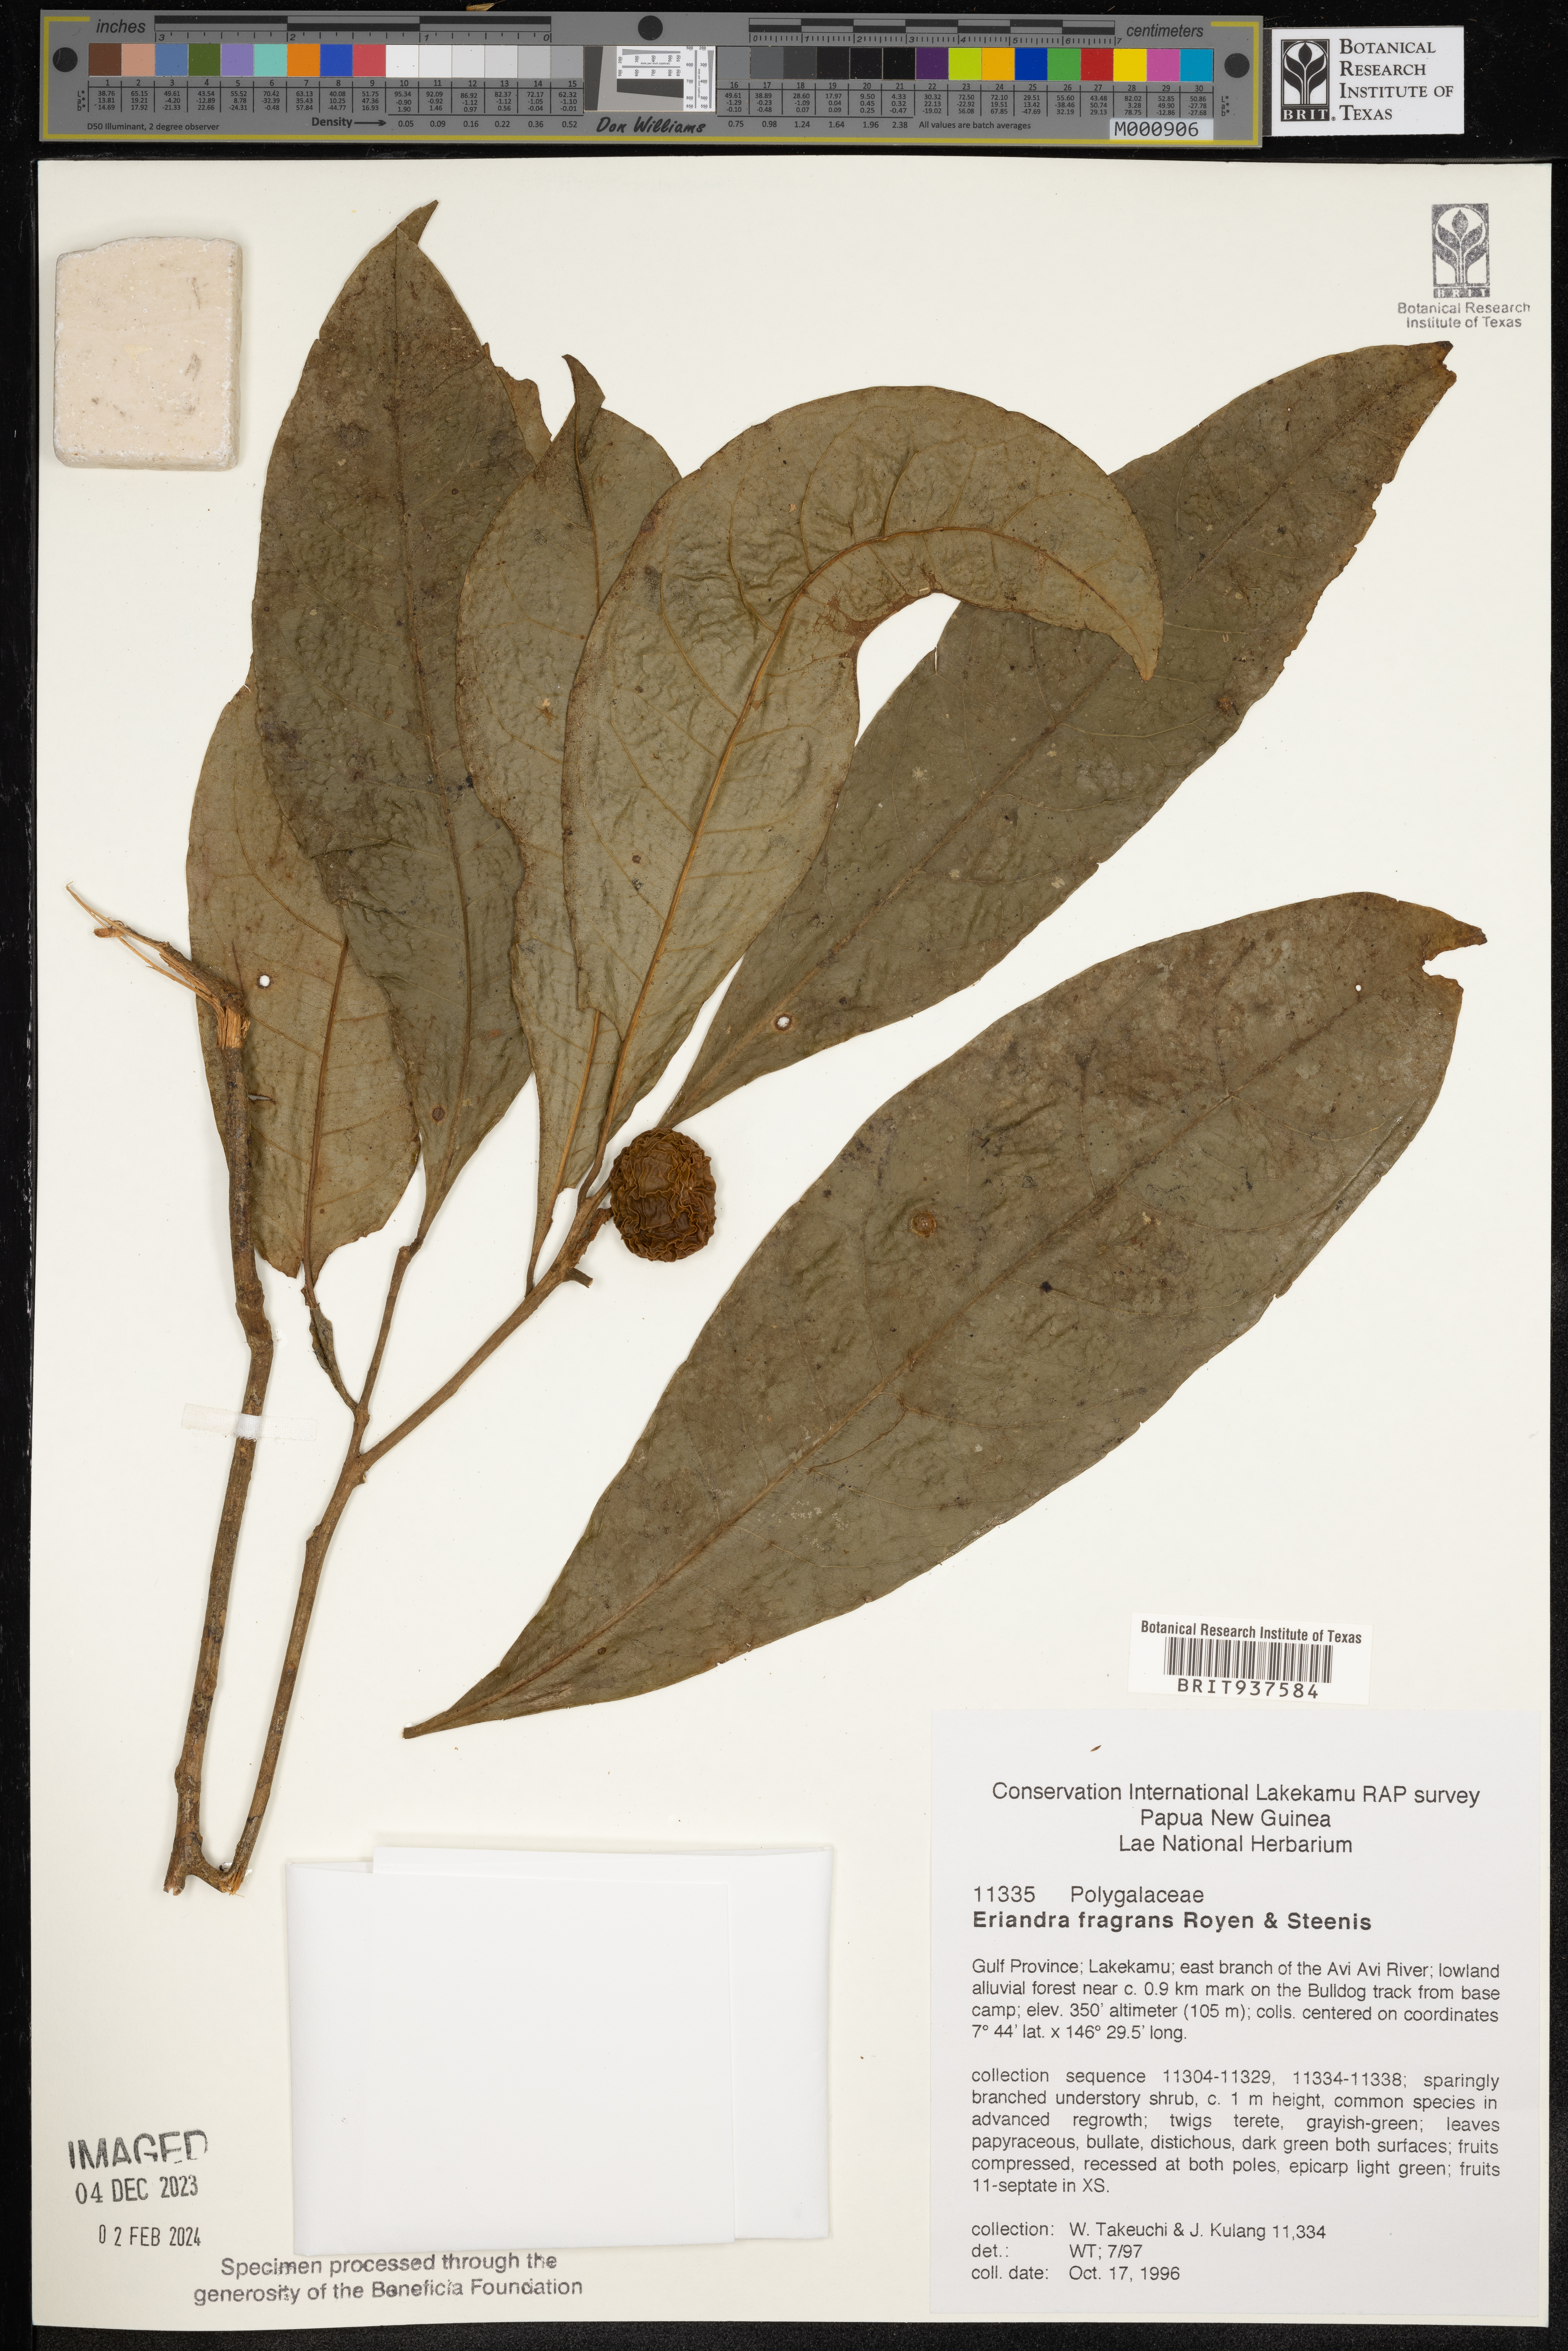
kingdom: Plantae
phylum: Tracheophyta
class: Magnoliopsida
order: Fabales
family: Polygalaceae
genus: Eriandra
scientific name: Eriandra
